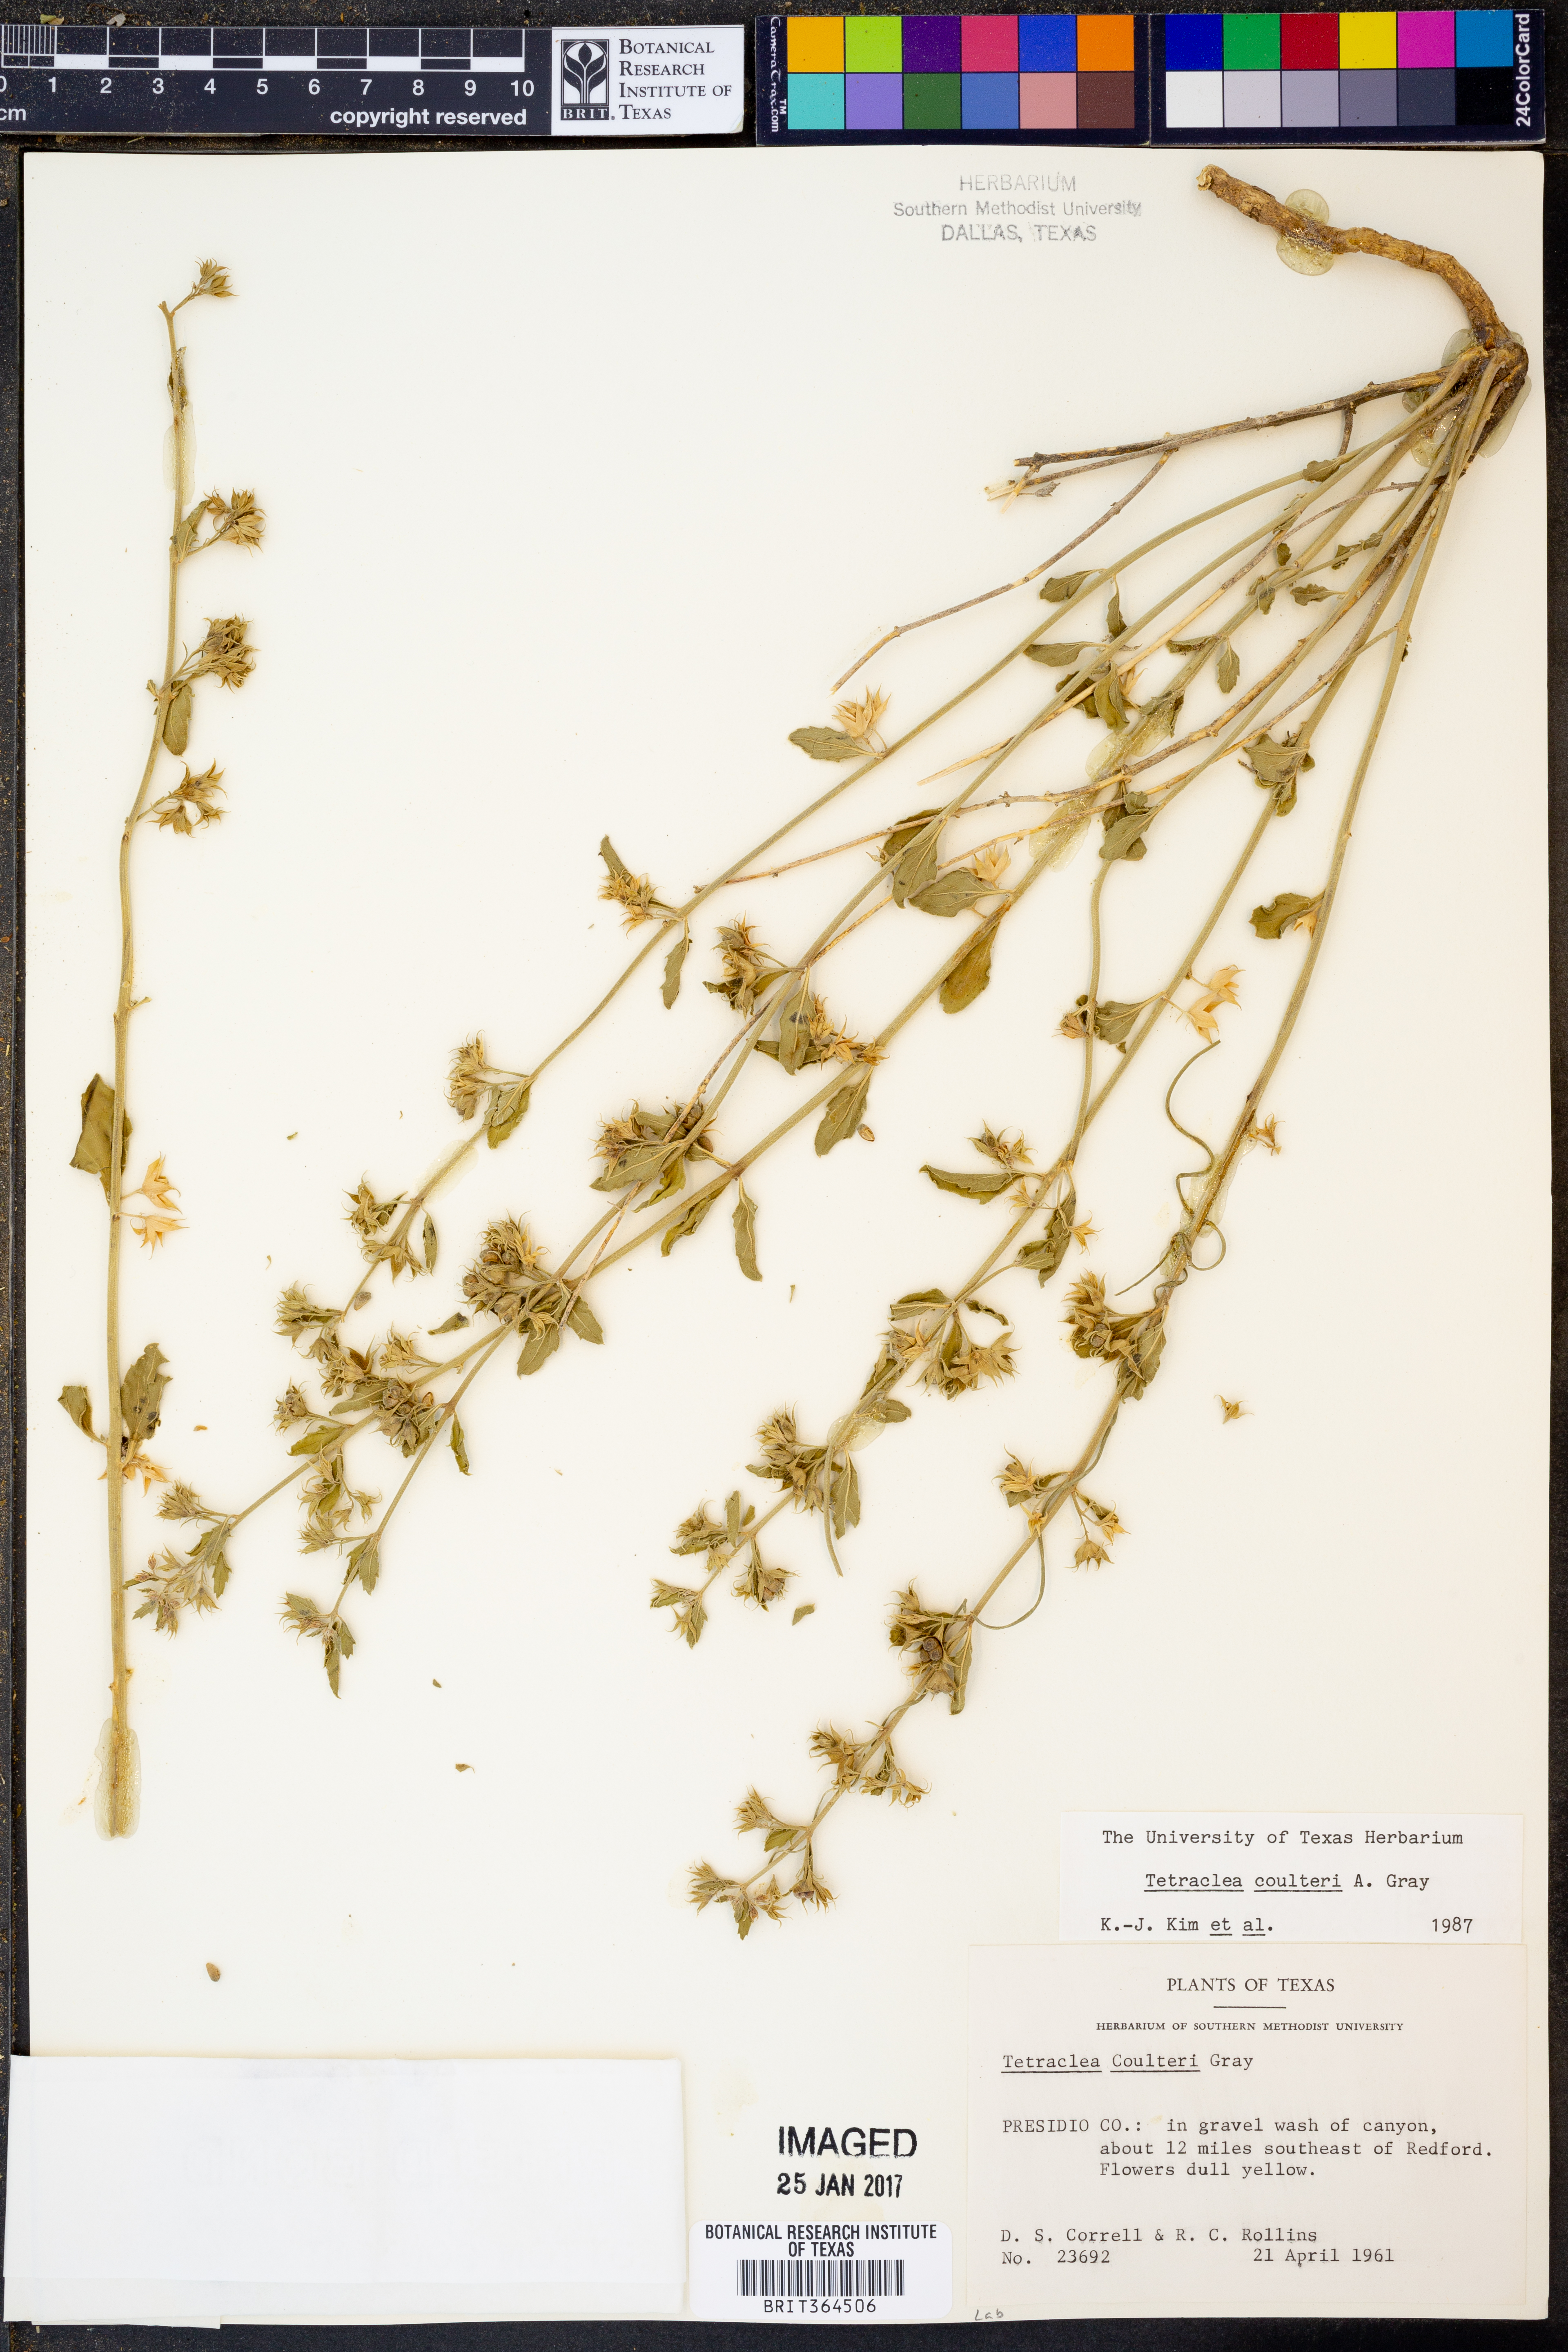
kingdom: Plantae
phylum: Tracheophyta
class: Magnoliopsida
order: Lamiales
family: Lamiaceae
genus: Tetraclea
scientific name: Tetraclea coulteri
